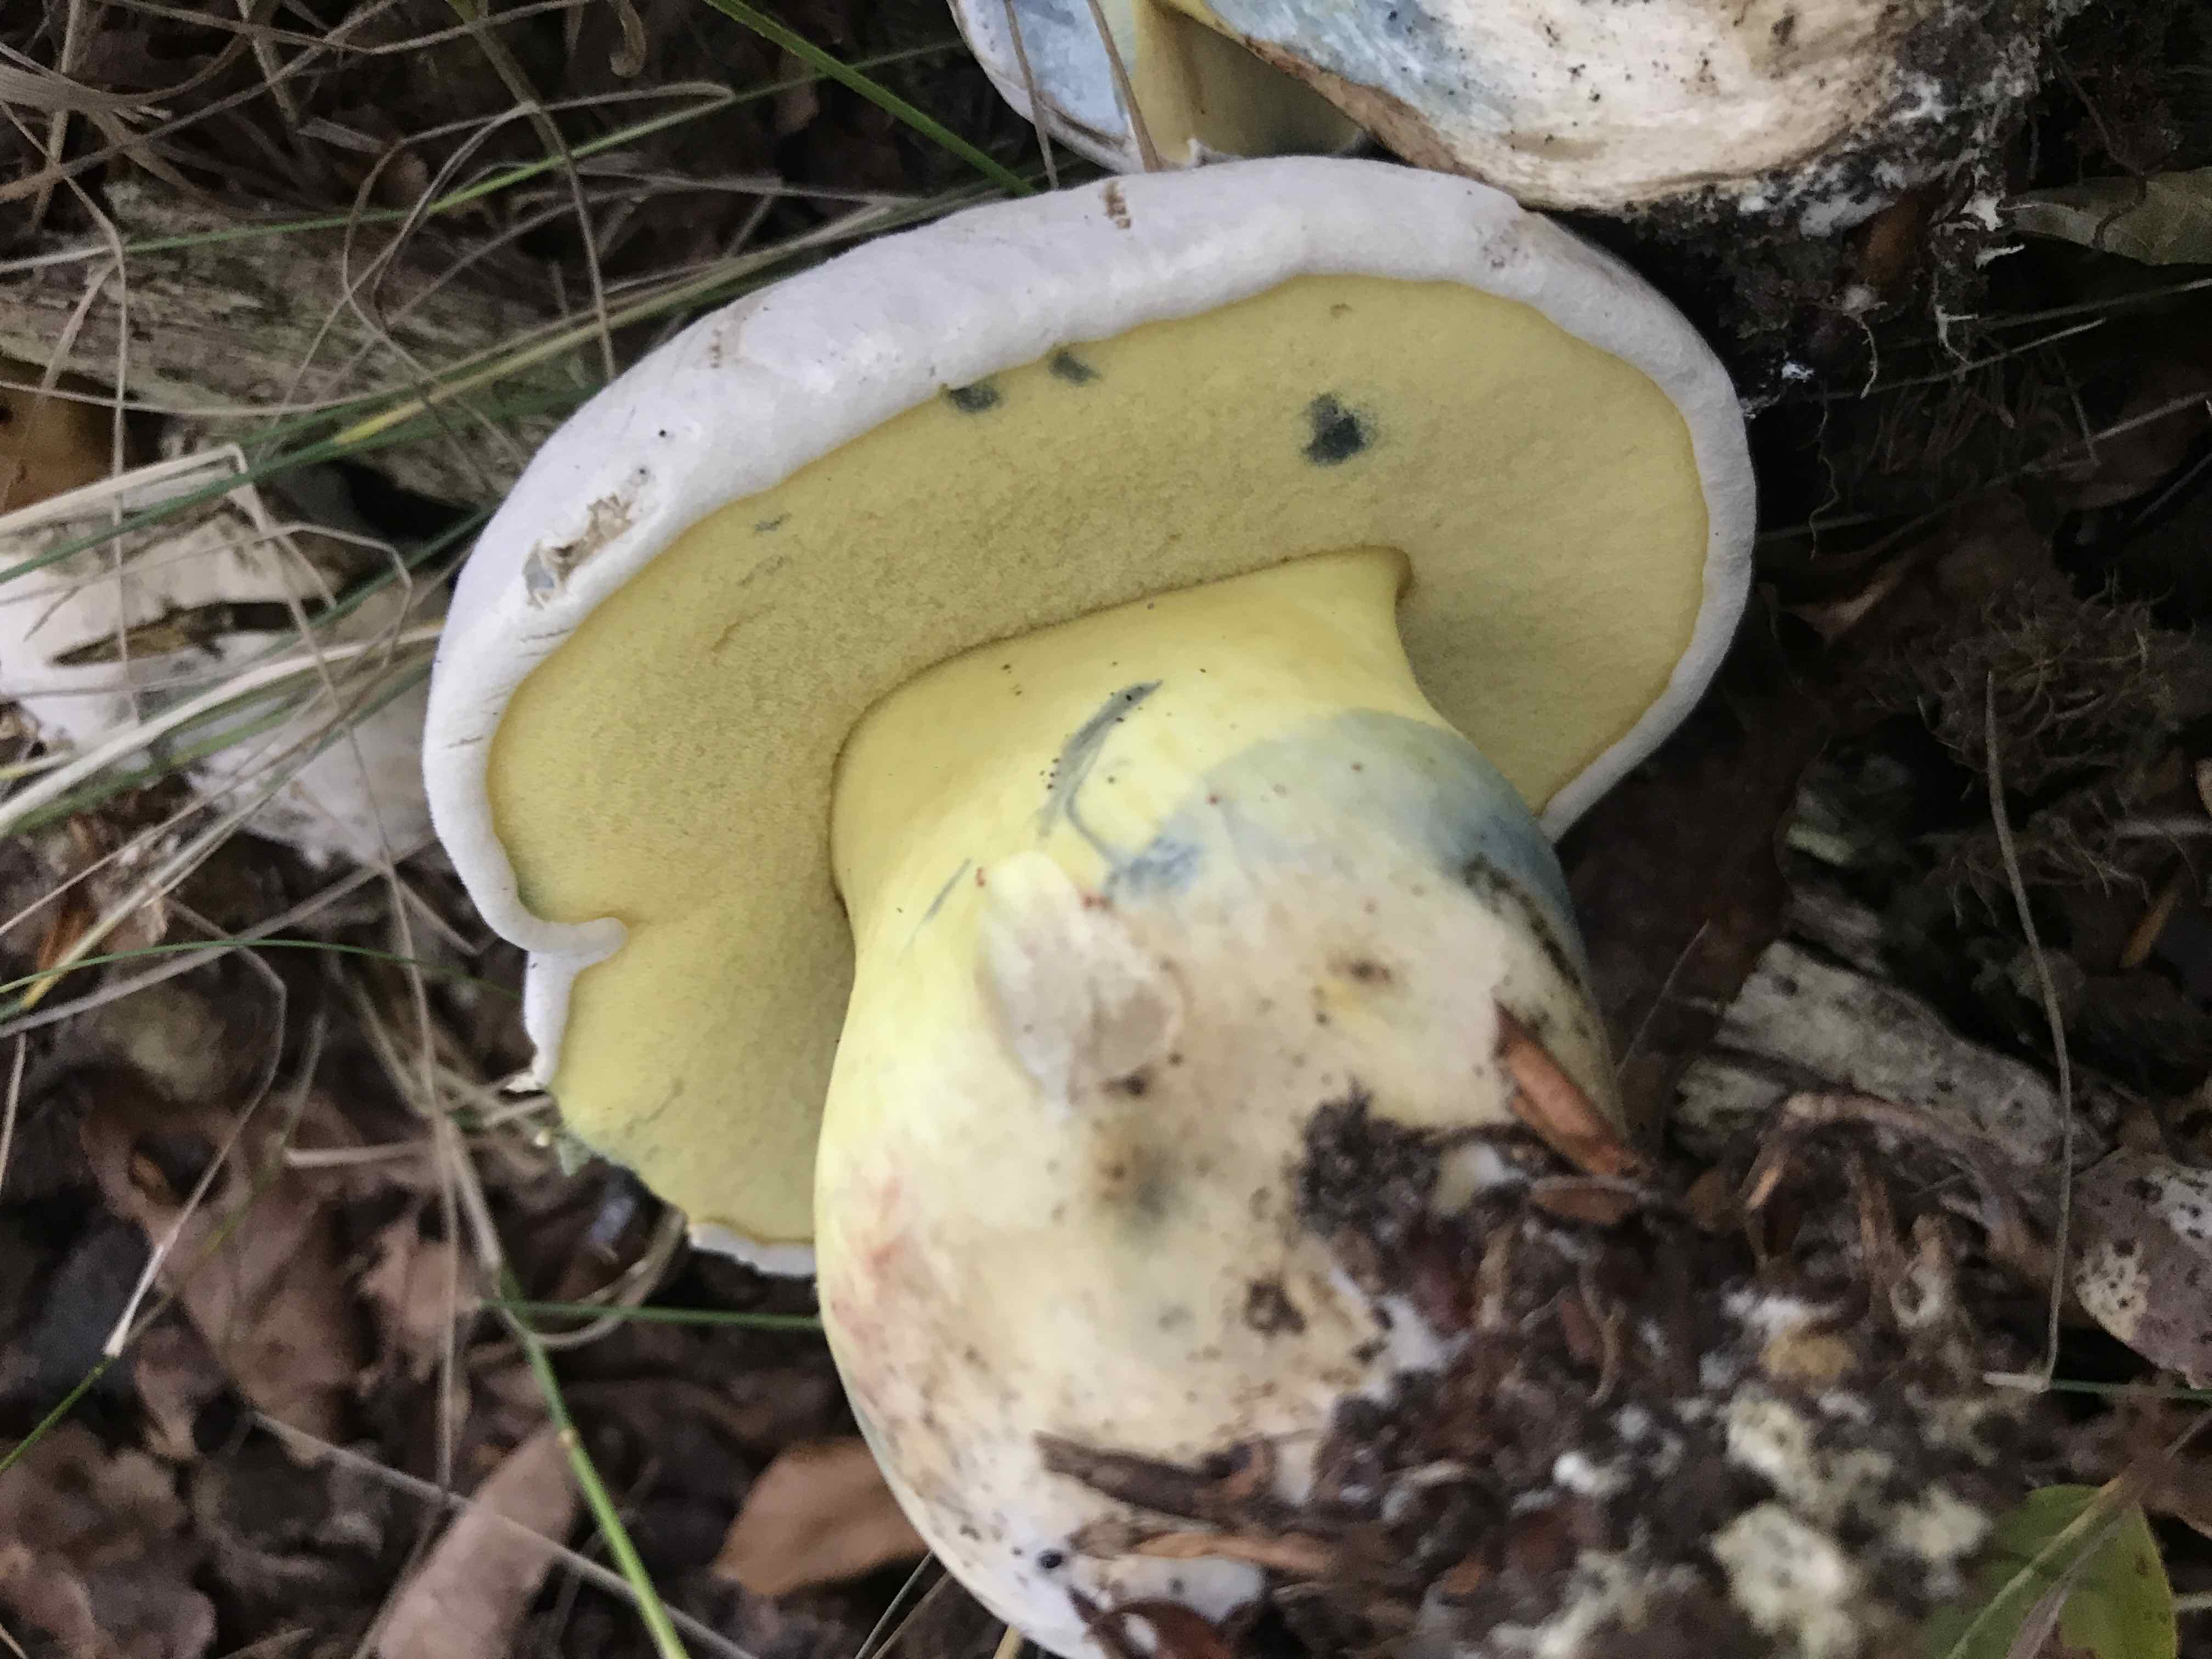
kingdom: Fungi
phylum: Basidiomycota
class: Agaricomycetes
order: Boletales
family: Boletaceae
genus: Caloboletus
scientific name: Caloboletus radicans
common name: rod-rørhat
